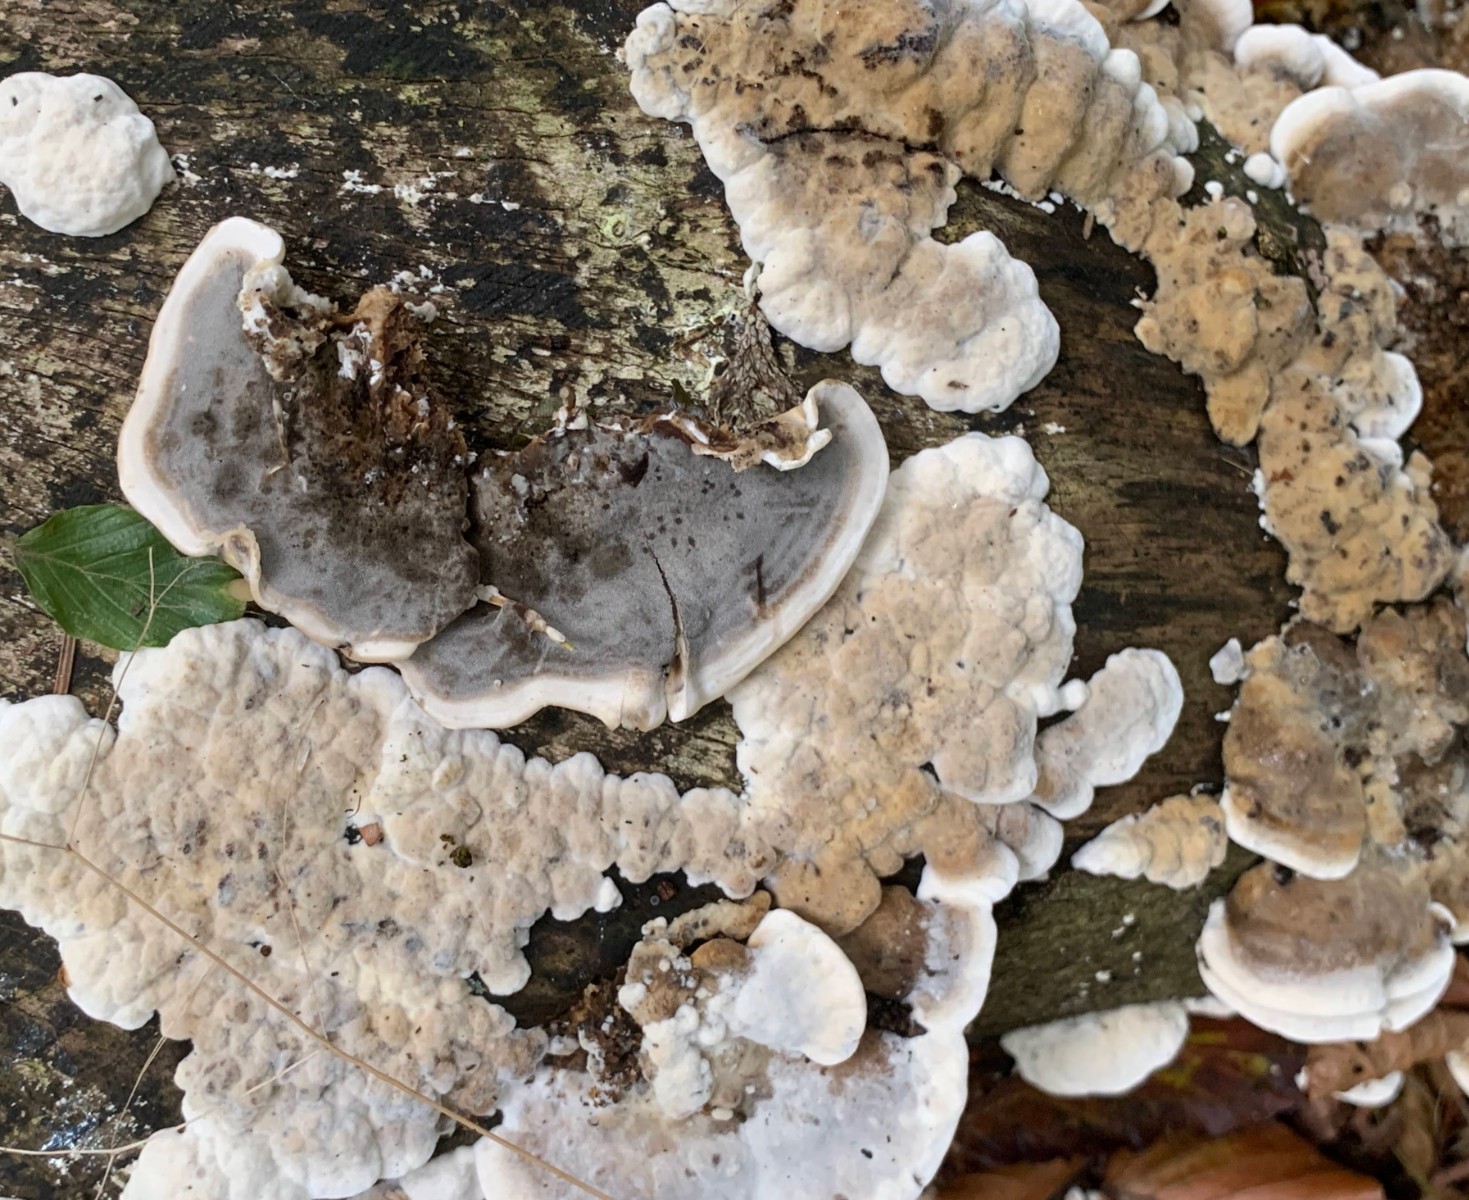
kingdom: Fungi
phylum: Basidiomycota
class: Agaricomycetes
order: Polyporales
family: Phanerochaetaceae
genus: Bjerkandera
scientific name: Bjerkandera adusta
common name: sveden sodporesvamp
